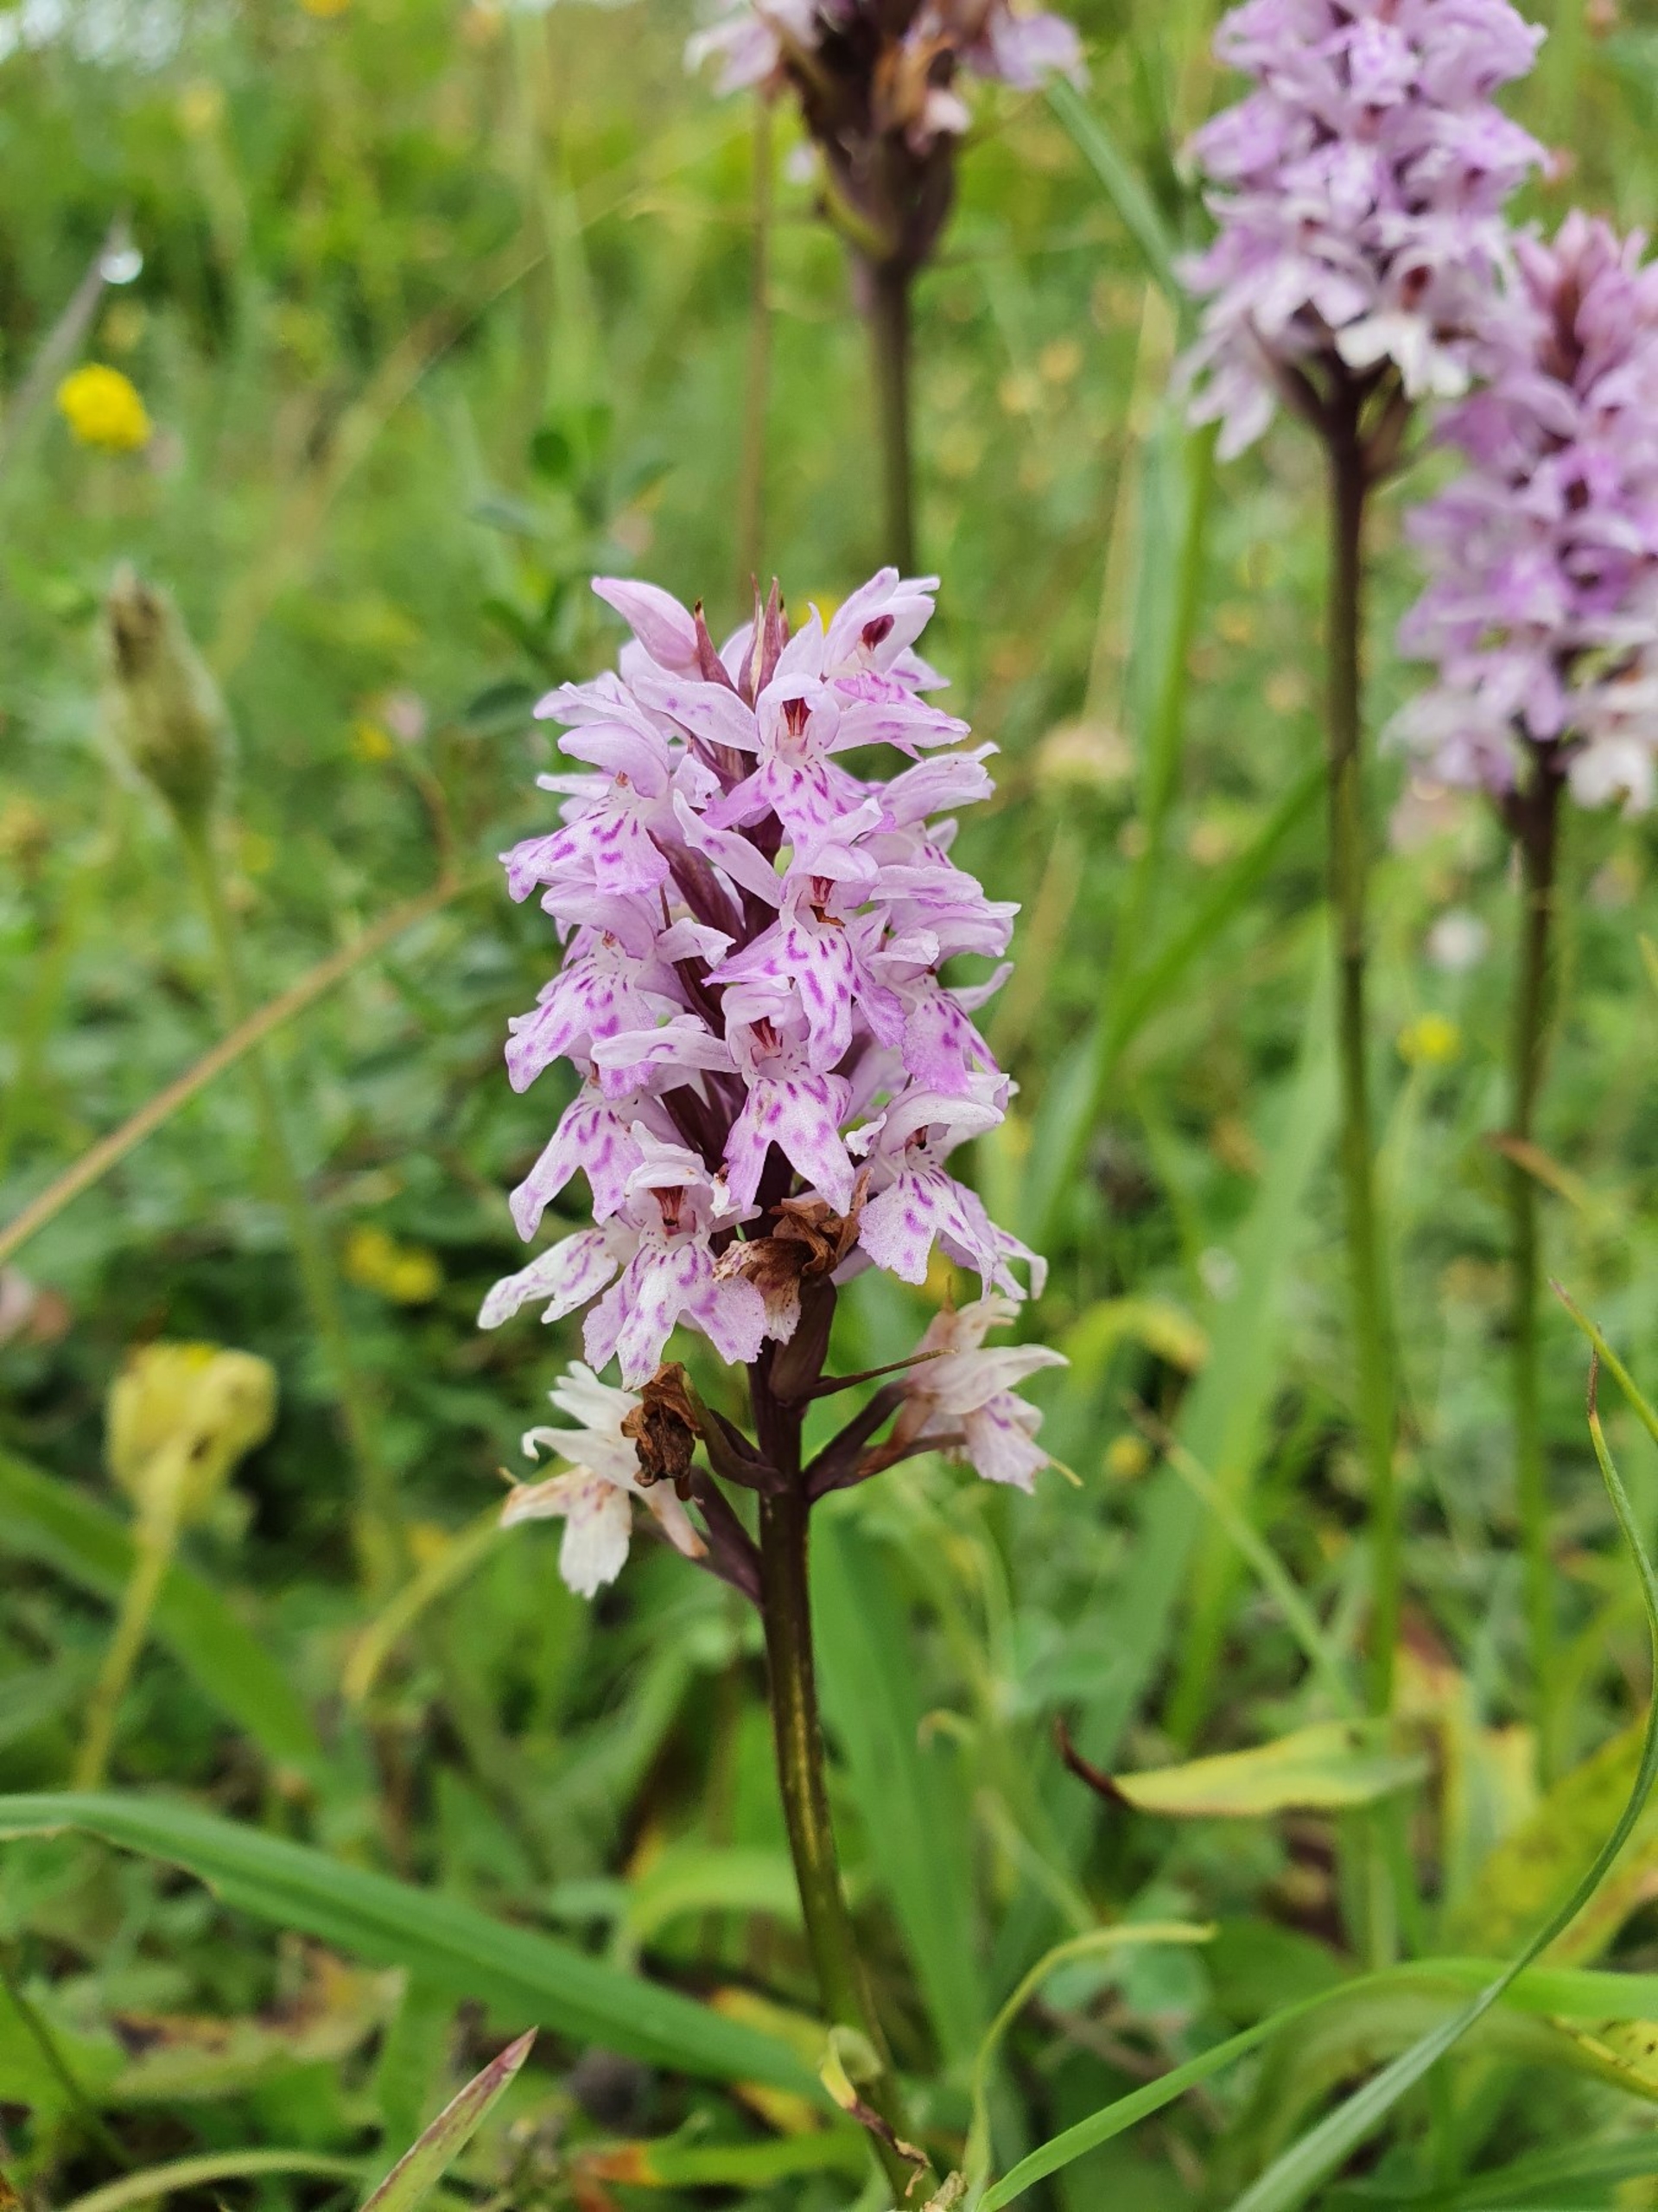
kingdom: Plantae
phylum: Tracheophyta
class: Liliopsida
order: Asparagales
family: Orchidaceae
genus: Dactylorhiza
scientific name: Dactylorhiza maculata
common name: Skov-gøgeurt
